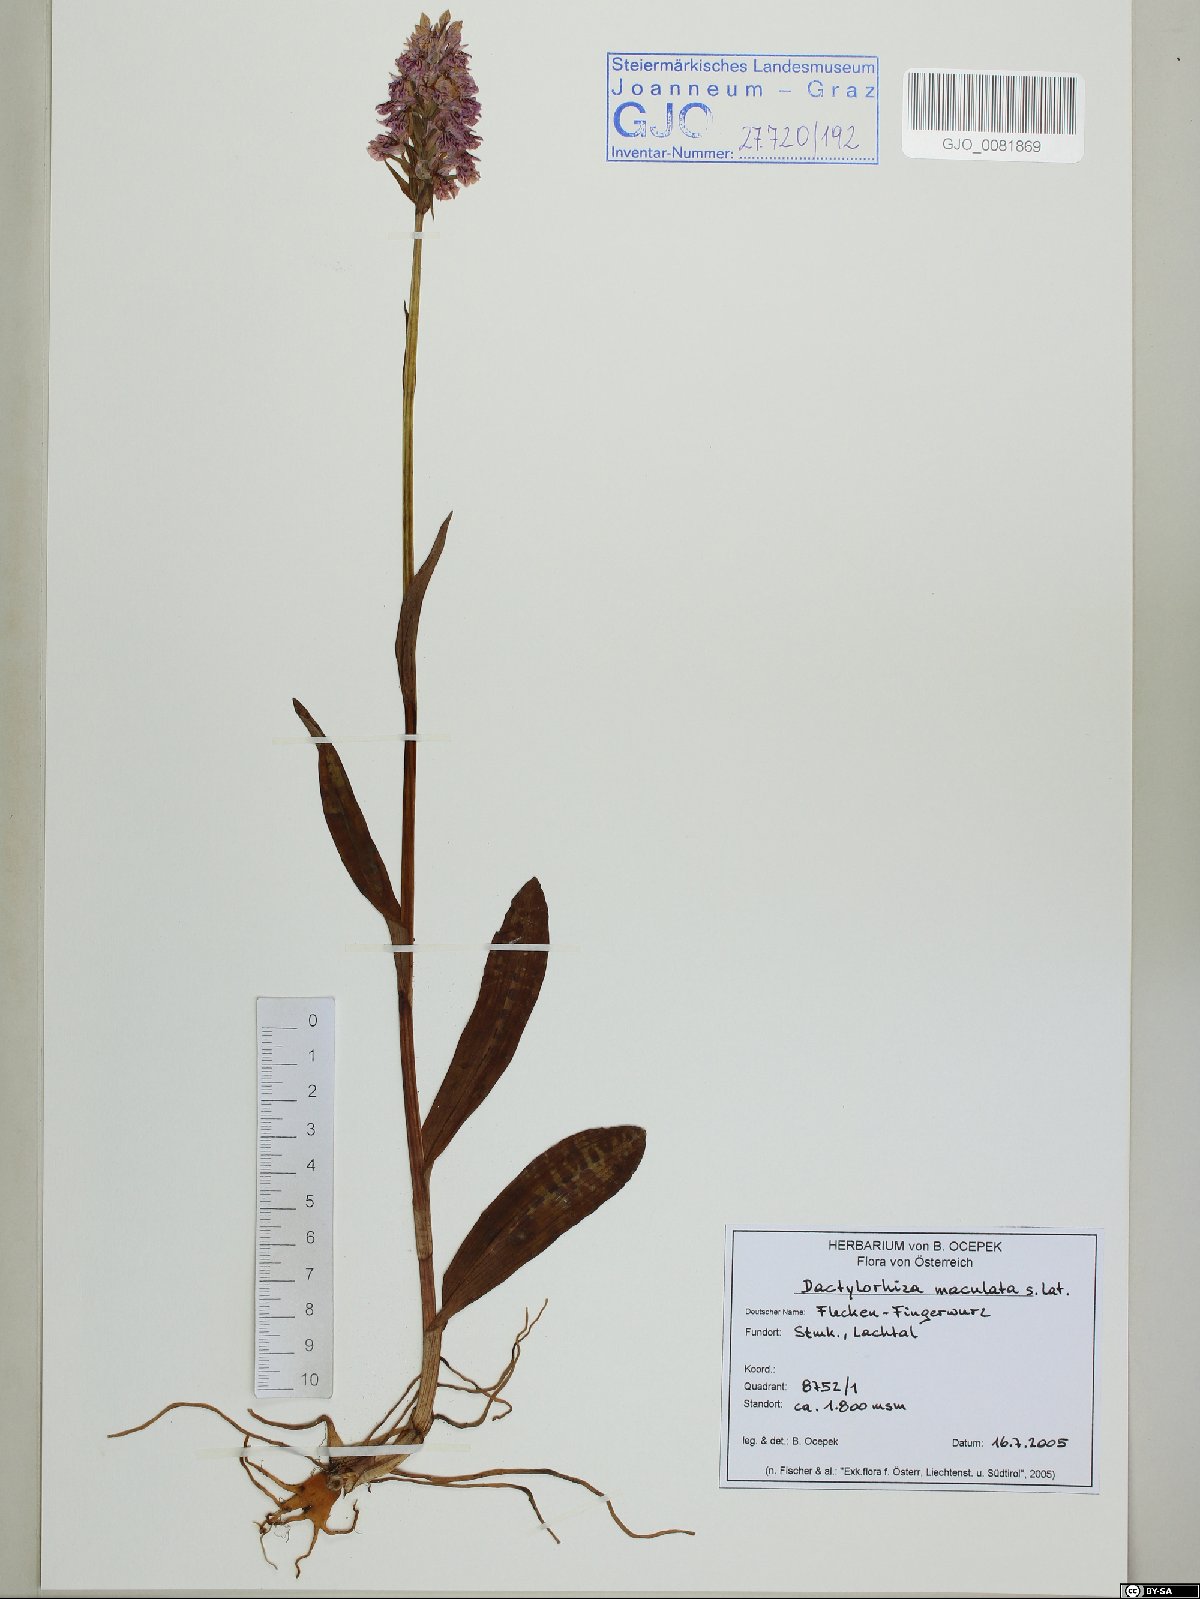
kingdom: Plantae
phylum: Tracheophyta
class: Liliopsida
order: Asparagales
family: Orchidaceae
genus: Dactylorhiza
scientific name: Dactylorhiza maculata
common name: Heath spotted-orchid
